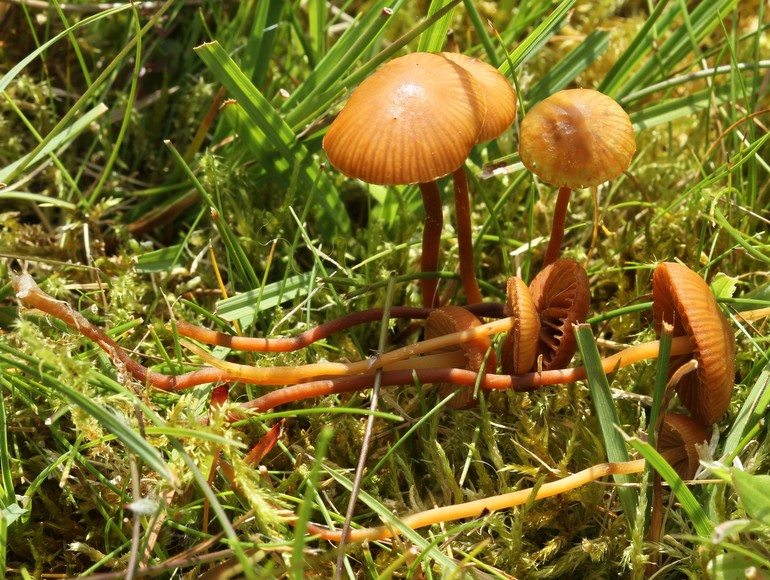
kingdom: Fungi
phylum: Basidiomycota
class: Agaricomycetes
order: Agaricales
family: Hymenogastraceae
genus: Galerina
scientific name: Galerina vittiformis
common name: Hairy leg bell
